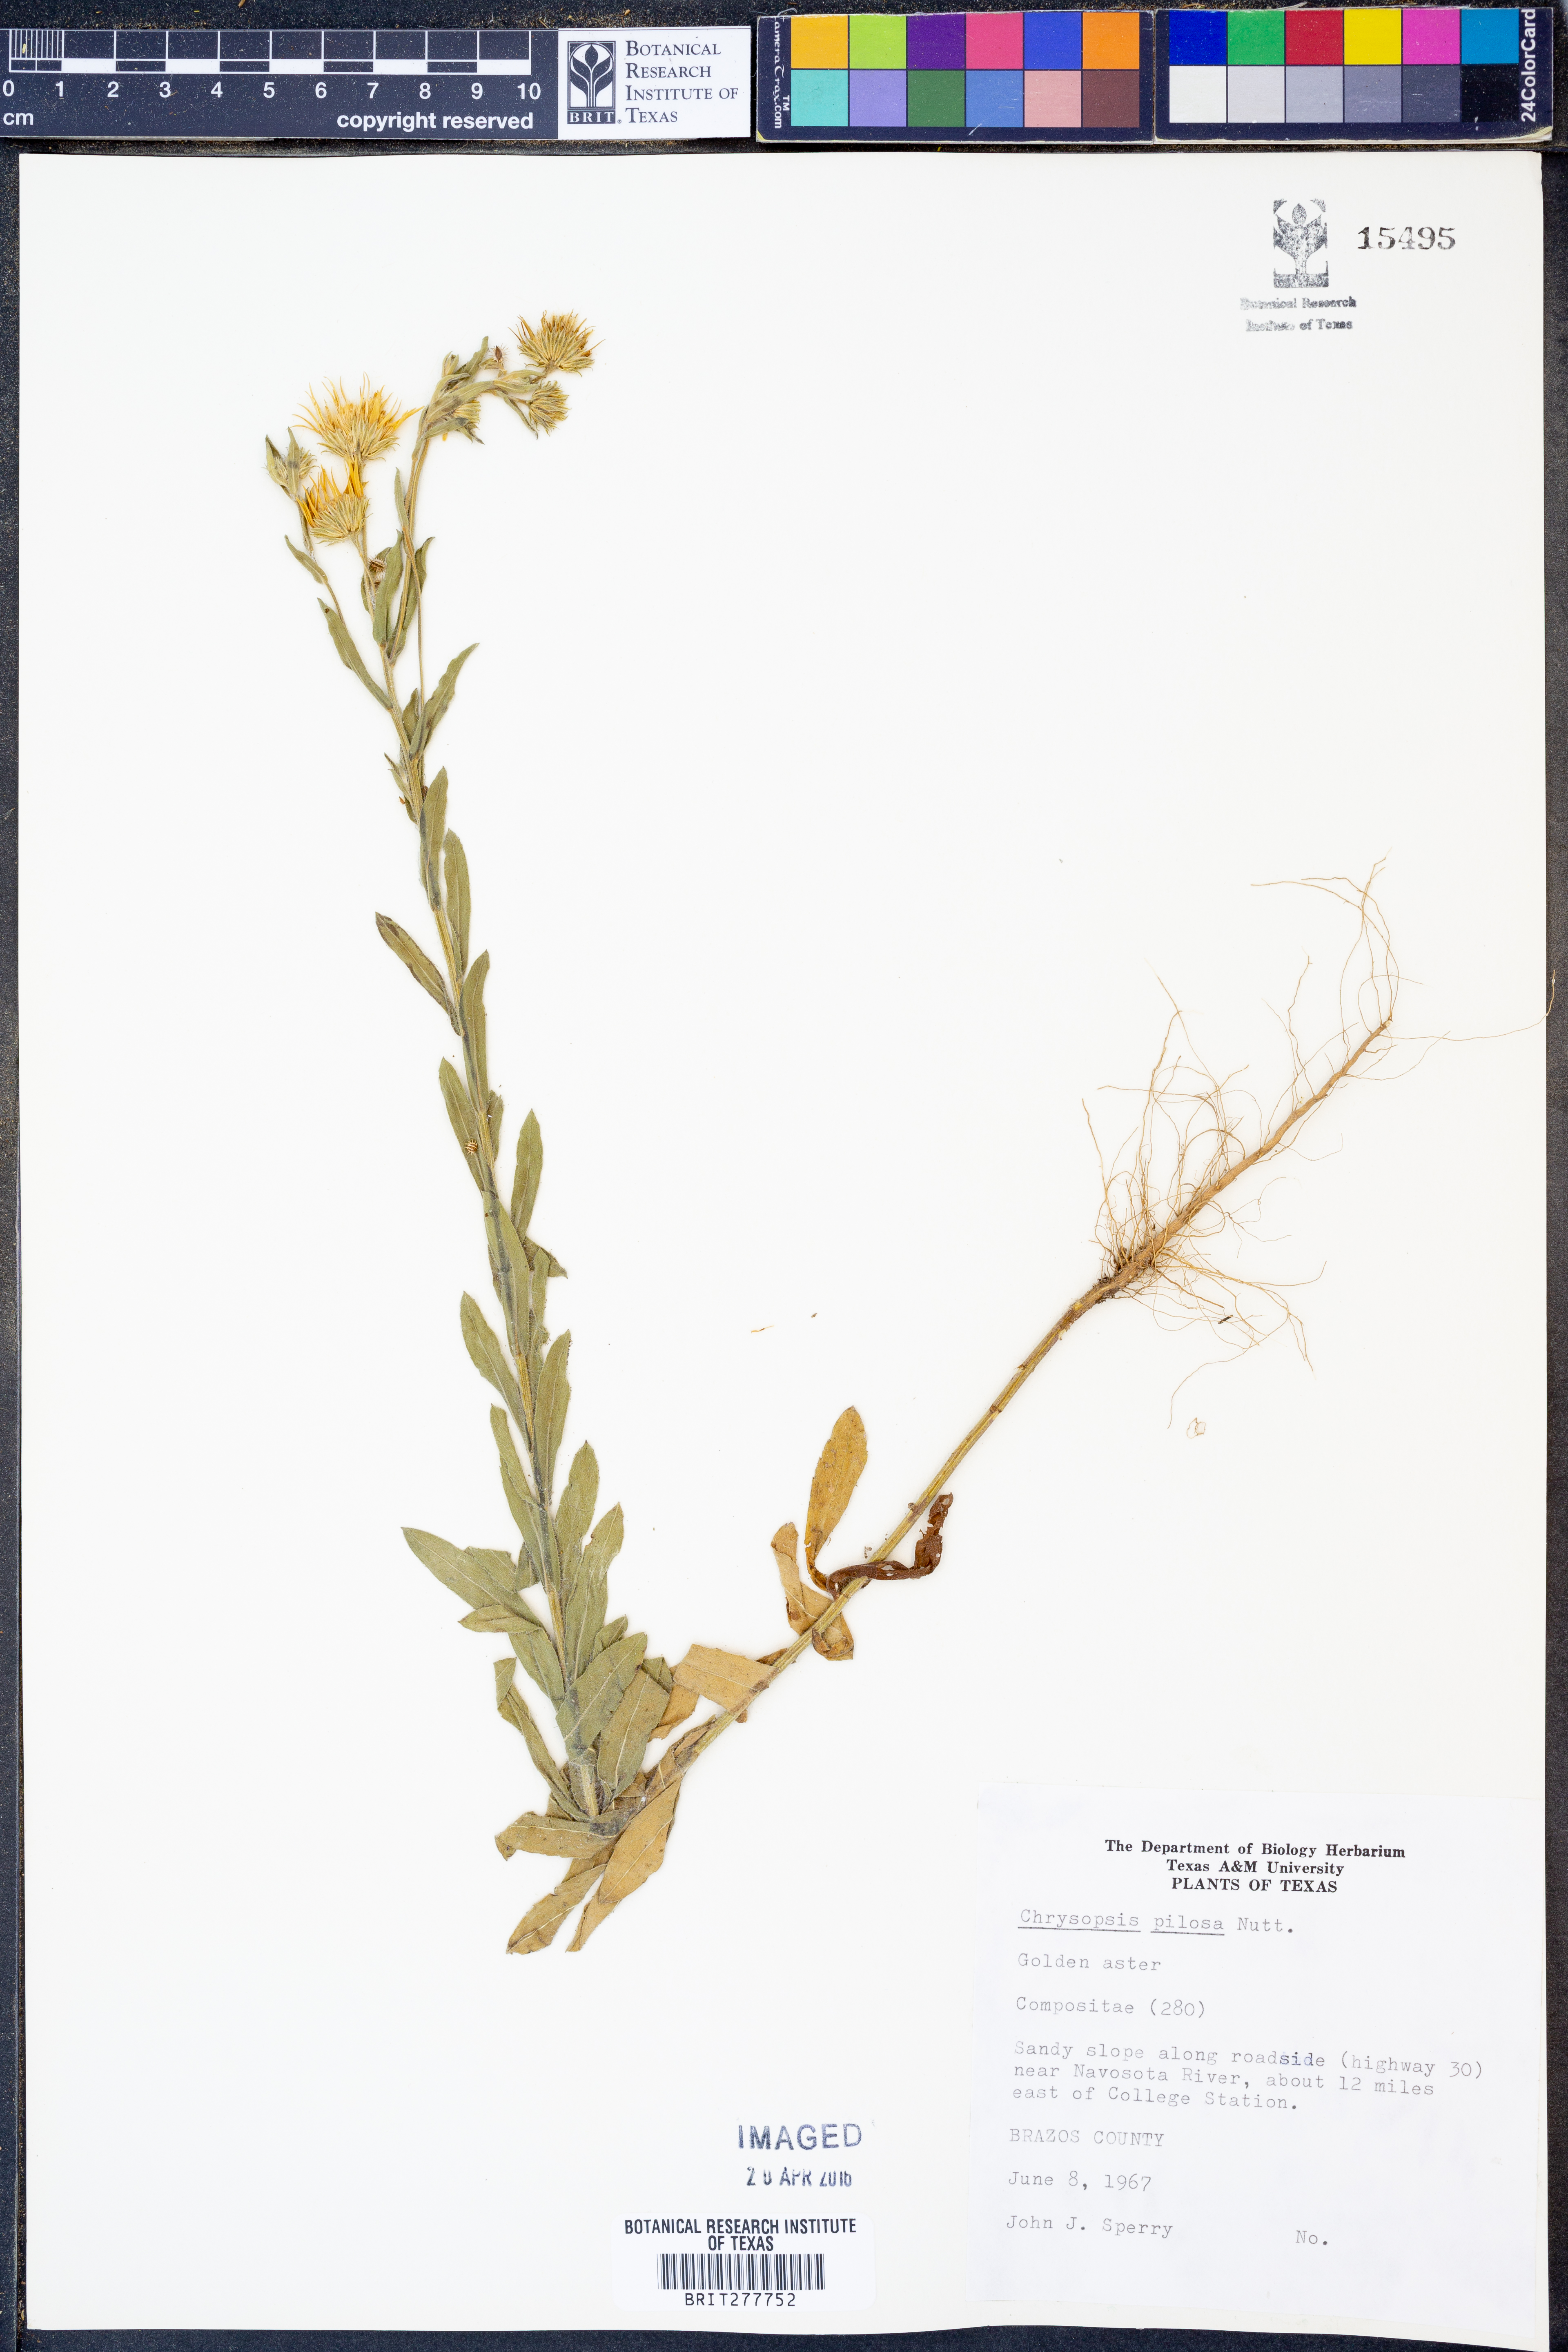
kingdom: Plantae
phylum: Tracheophyta
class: Magnoliopsida
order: Asterales
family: Asteraceae
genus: Bradburia
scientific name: Bradburia pilosa
